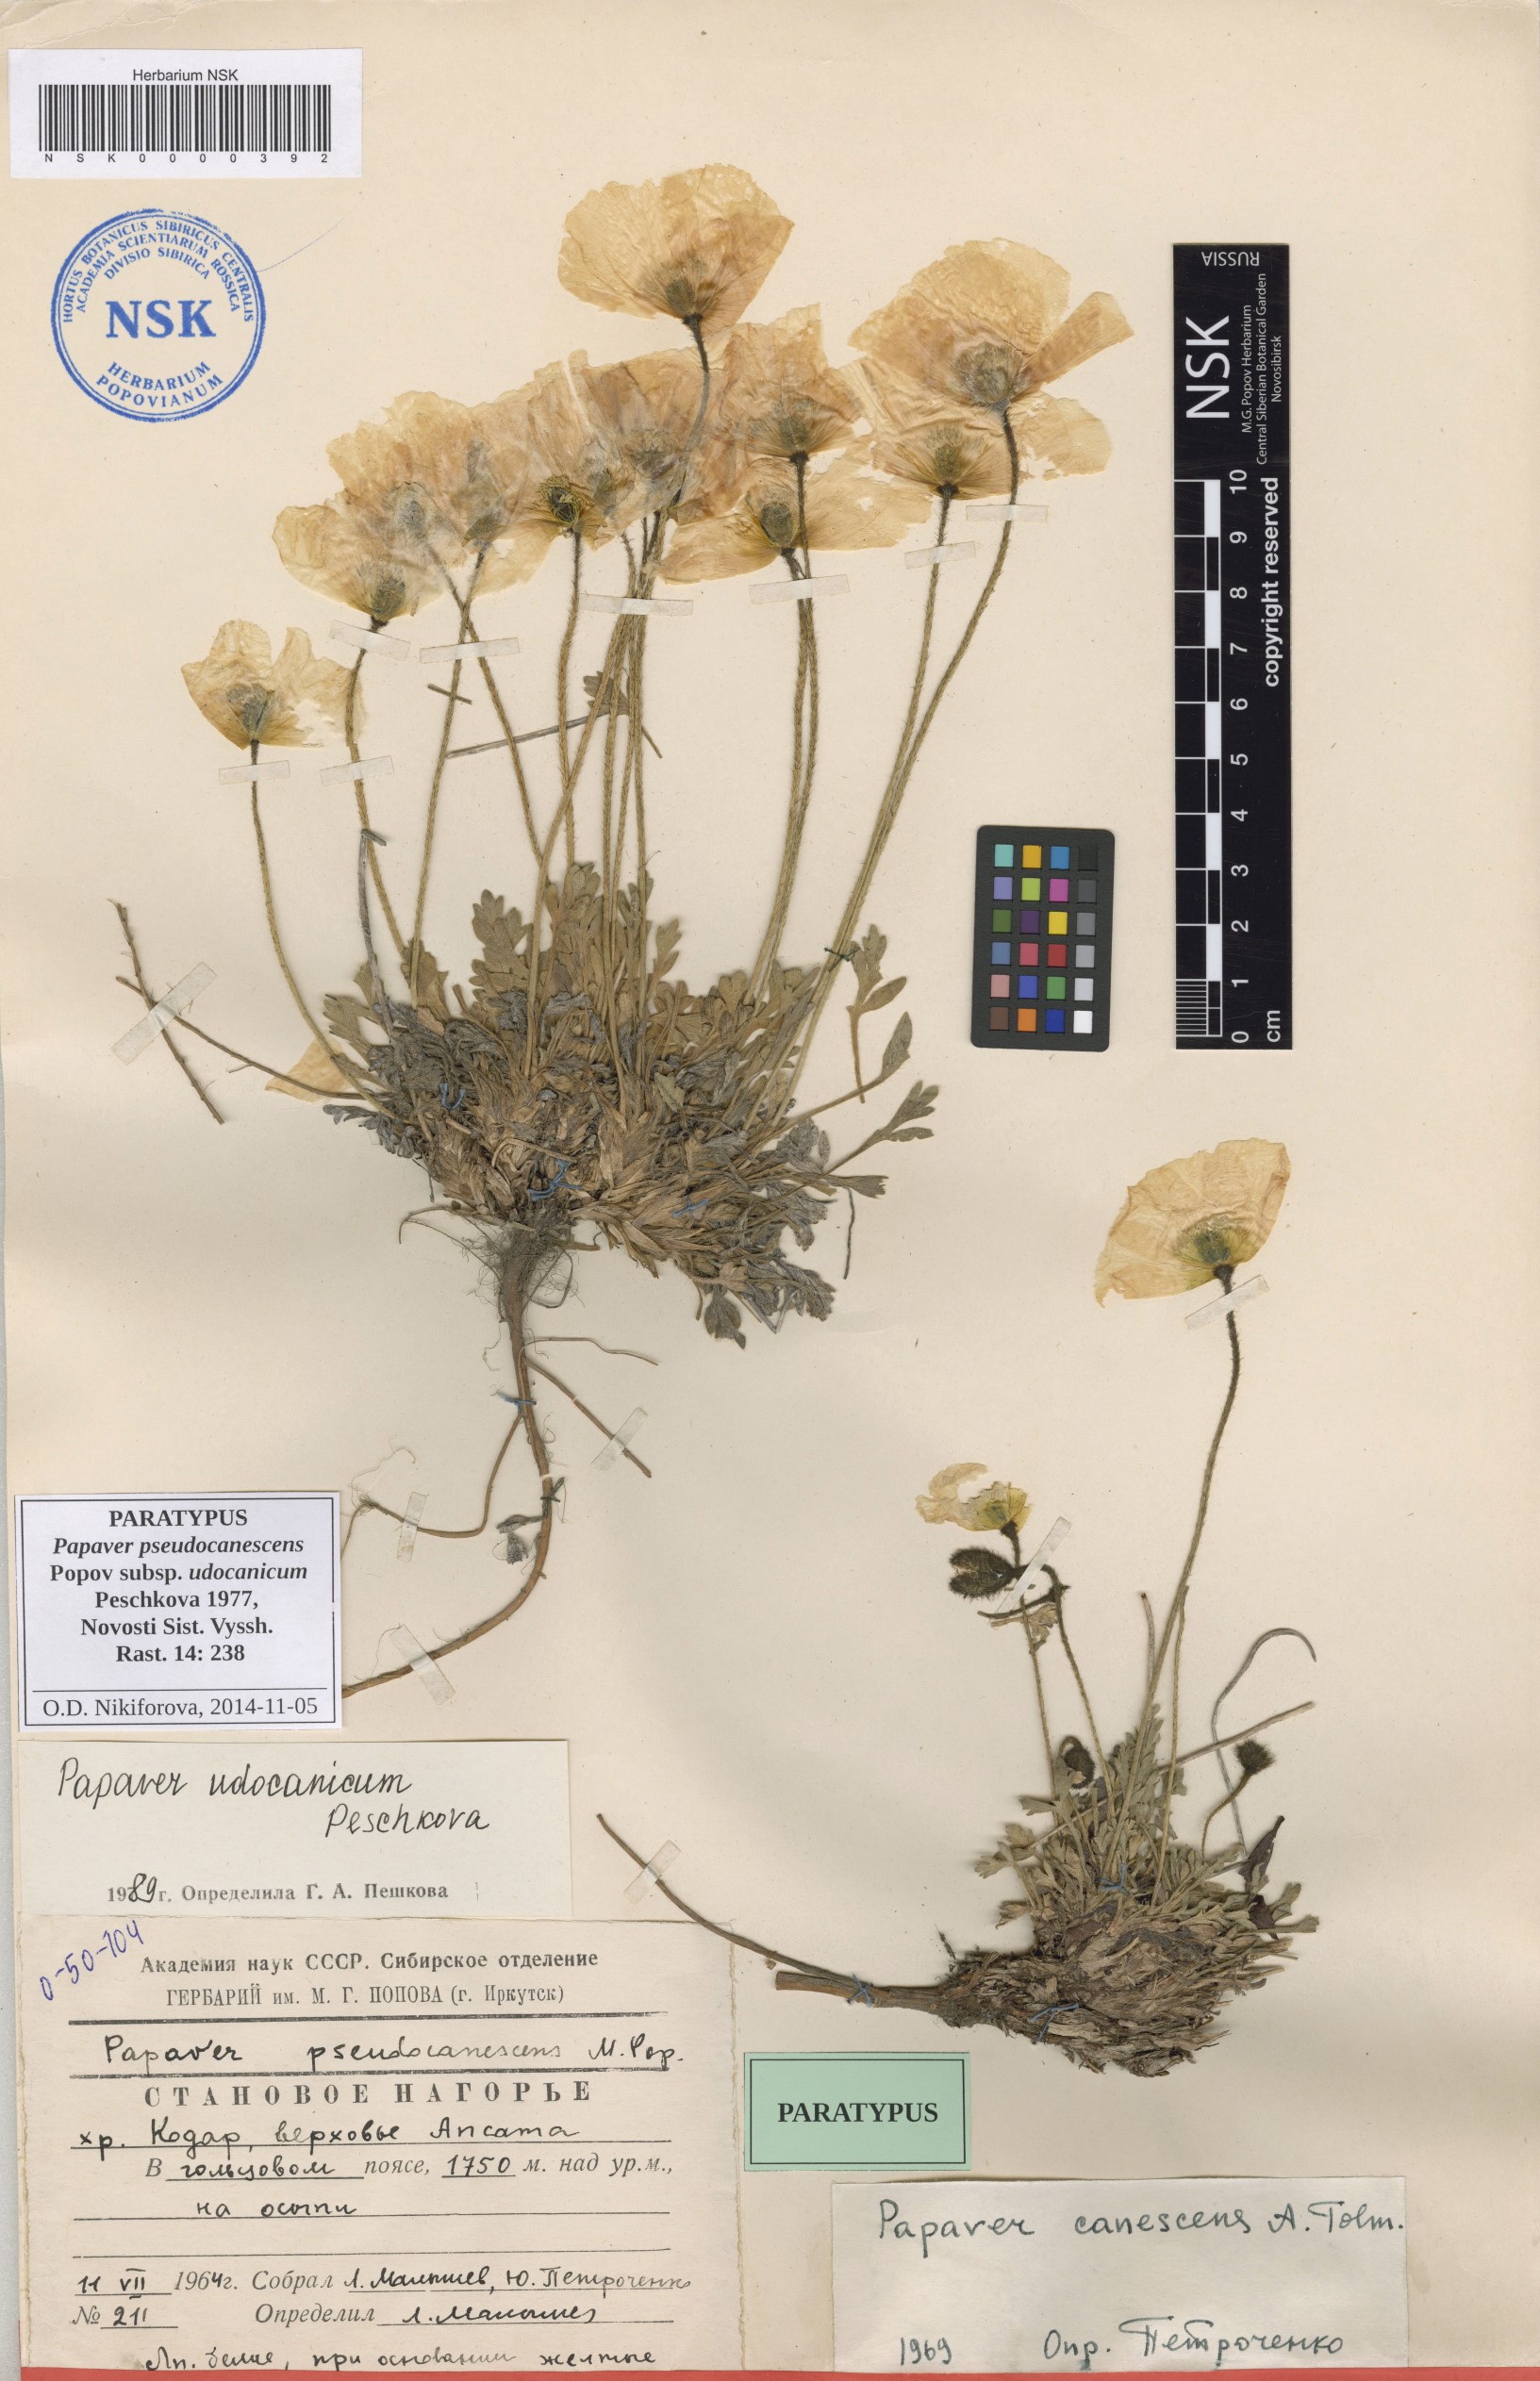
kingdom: Plantae
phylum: Tracheophyta
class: Magnoliopsida
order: Ranunculales
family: Papaveraceae
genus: Papaver
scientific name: Papaver udocanicum
